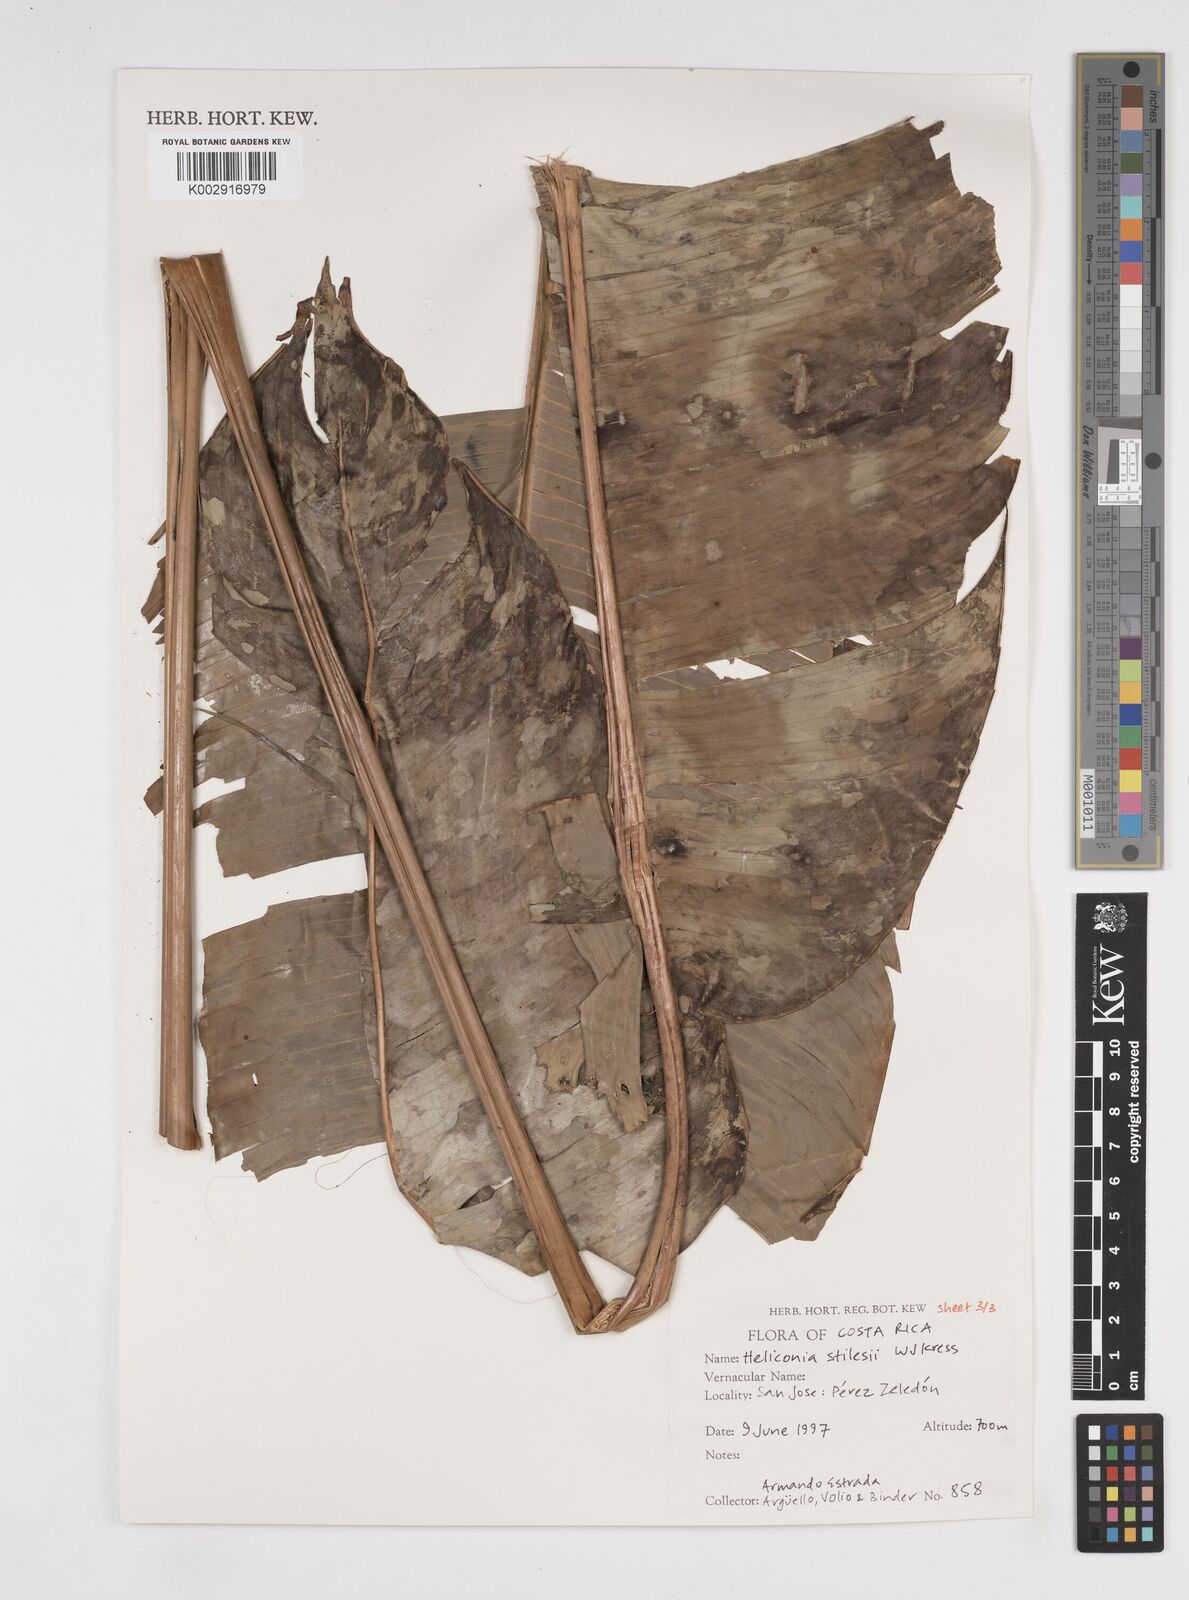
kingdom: Plantae
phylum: Tracheophyta
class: Liliopsida
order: Zingiberales
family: Heliconiaceae
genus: Heliconia
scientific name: Heliconia stilesii
